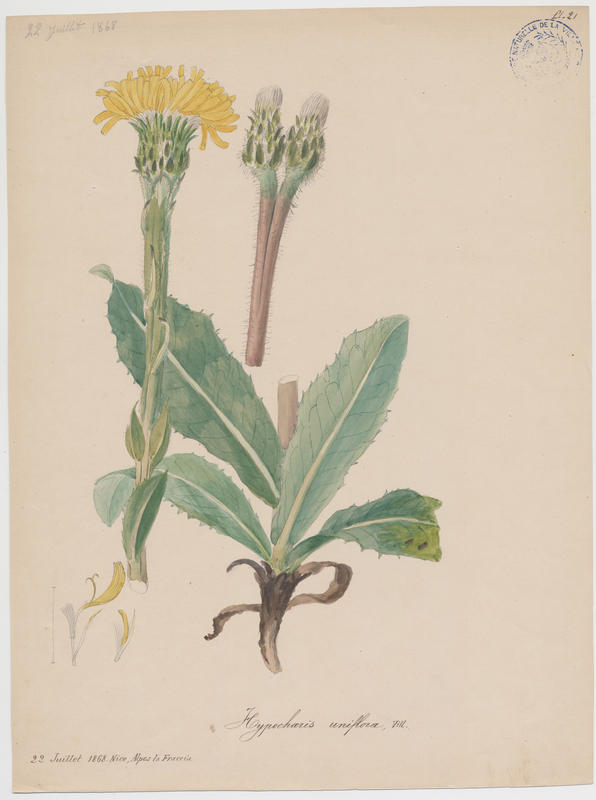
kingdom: Plantae
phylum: Tracheophyta
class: Magnoliopsida
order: Asterales
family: Asteraceae
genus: Trommsdorffia
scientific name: Trommsdorffia uniflora
